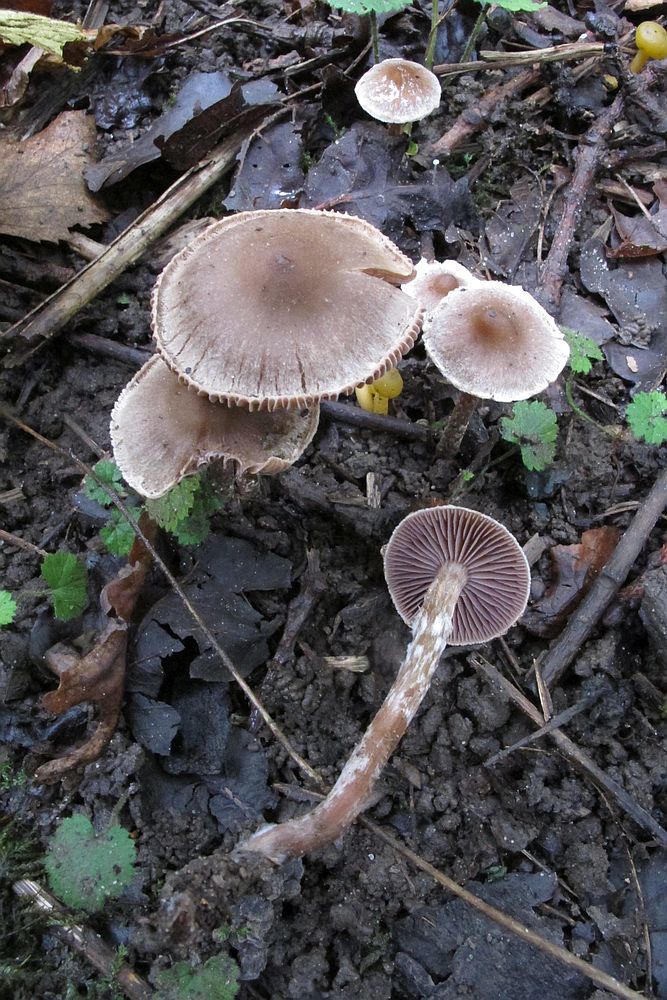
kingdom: Fungi
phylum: Basidiomycota
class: Agaricomycetes
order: Agaricales
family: Cortinariaceae
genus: Cortinarius
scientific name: Cortinarius
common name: pelargonie-slørhat
